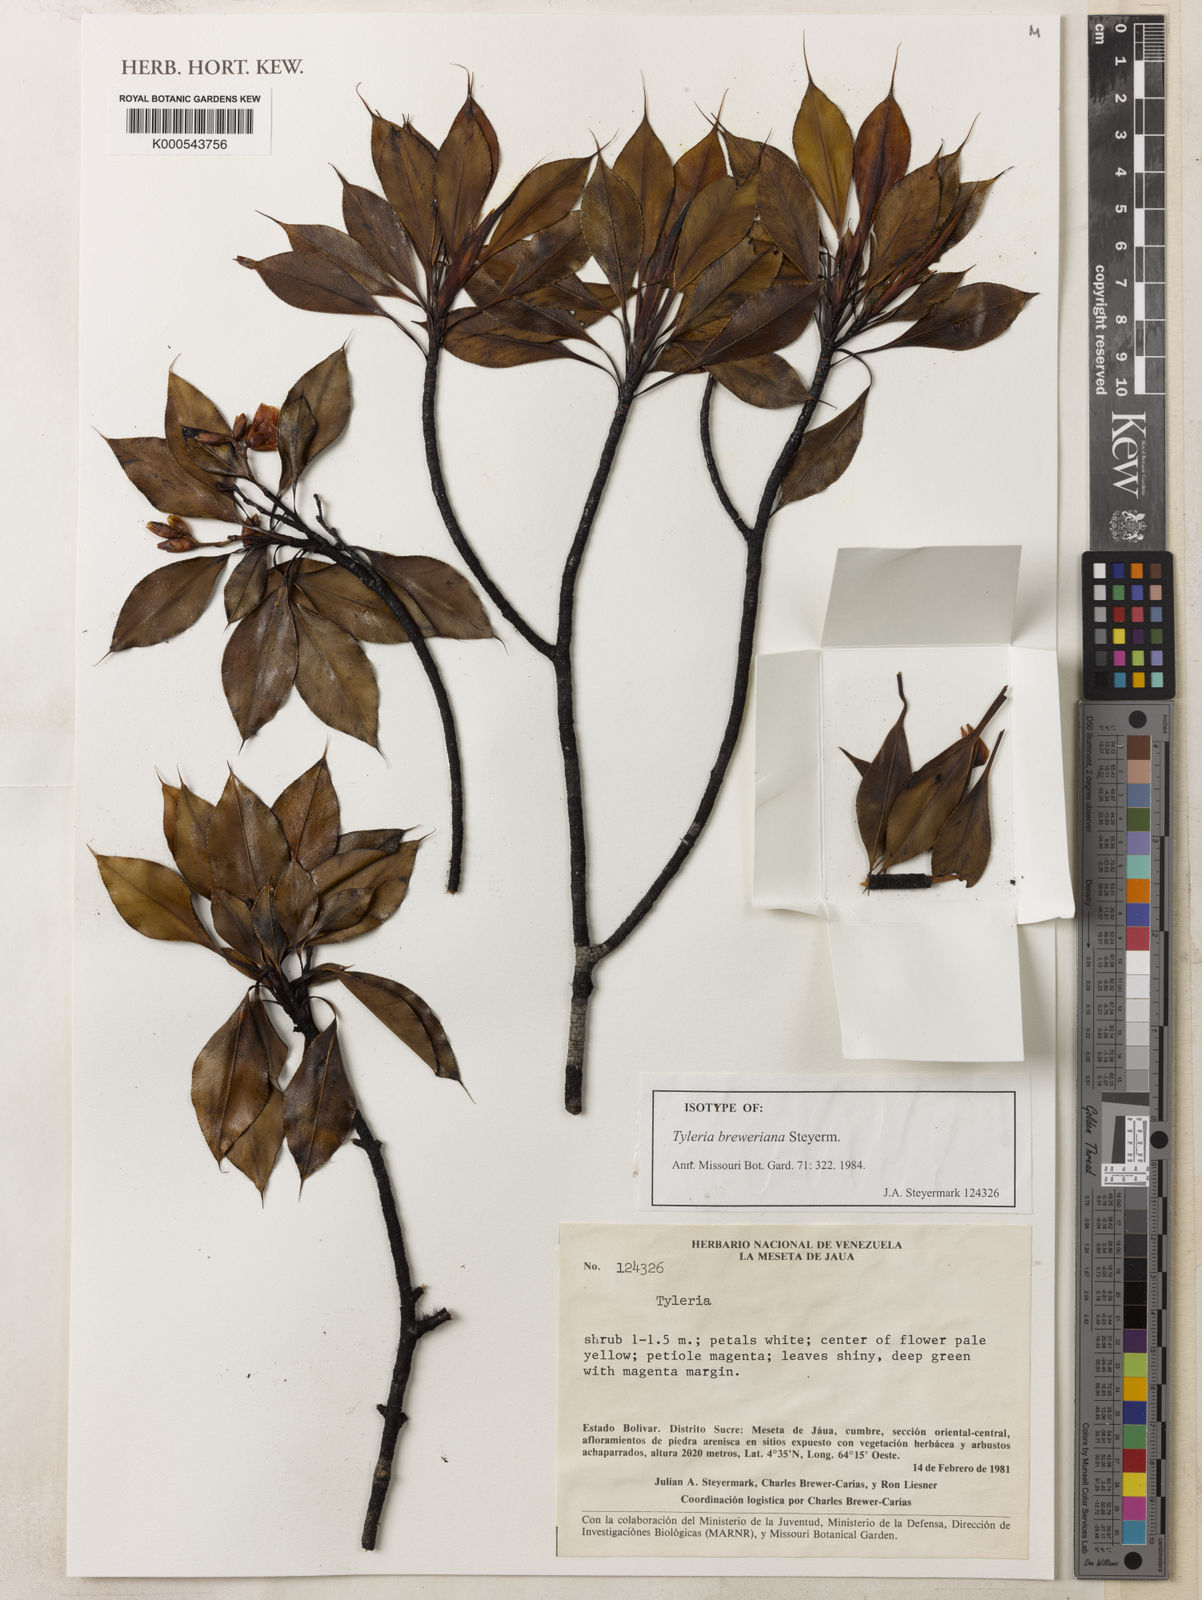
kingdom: Plantae
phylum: Tracheophyta
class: Magnoliopsida
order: Malpighiales
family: Ochnaceae
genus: Tyleria
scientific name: Tyleria breweriana
